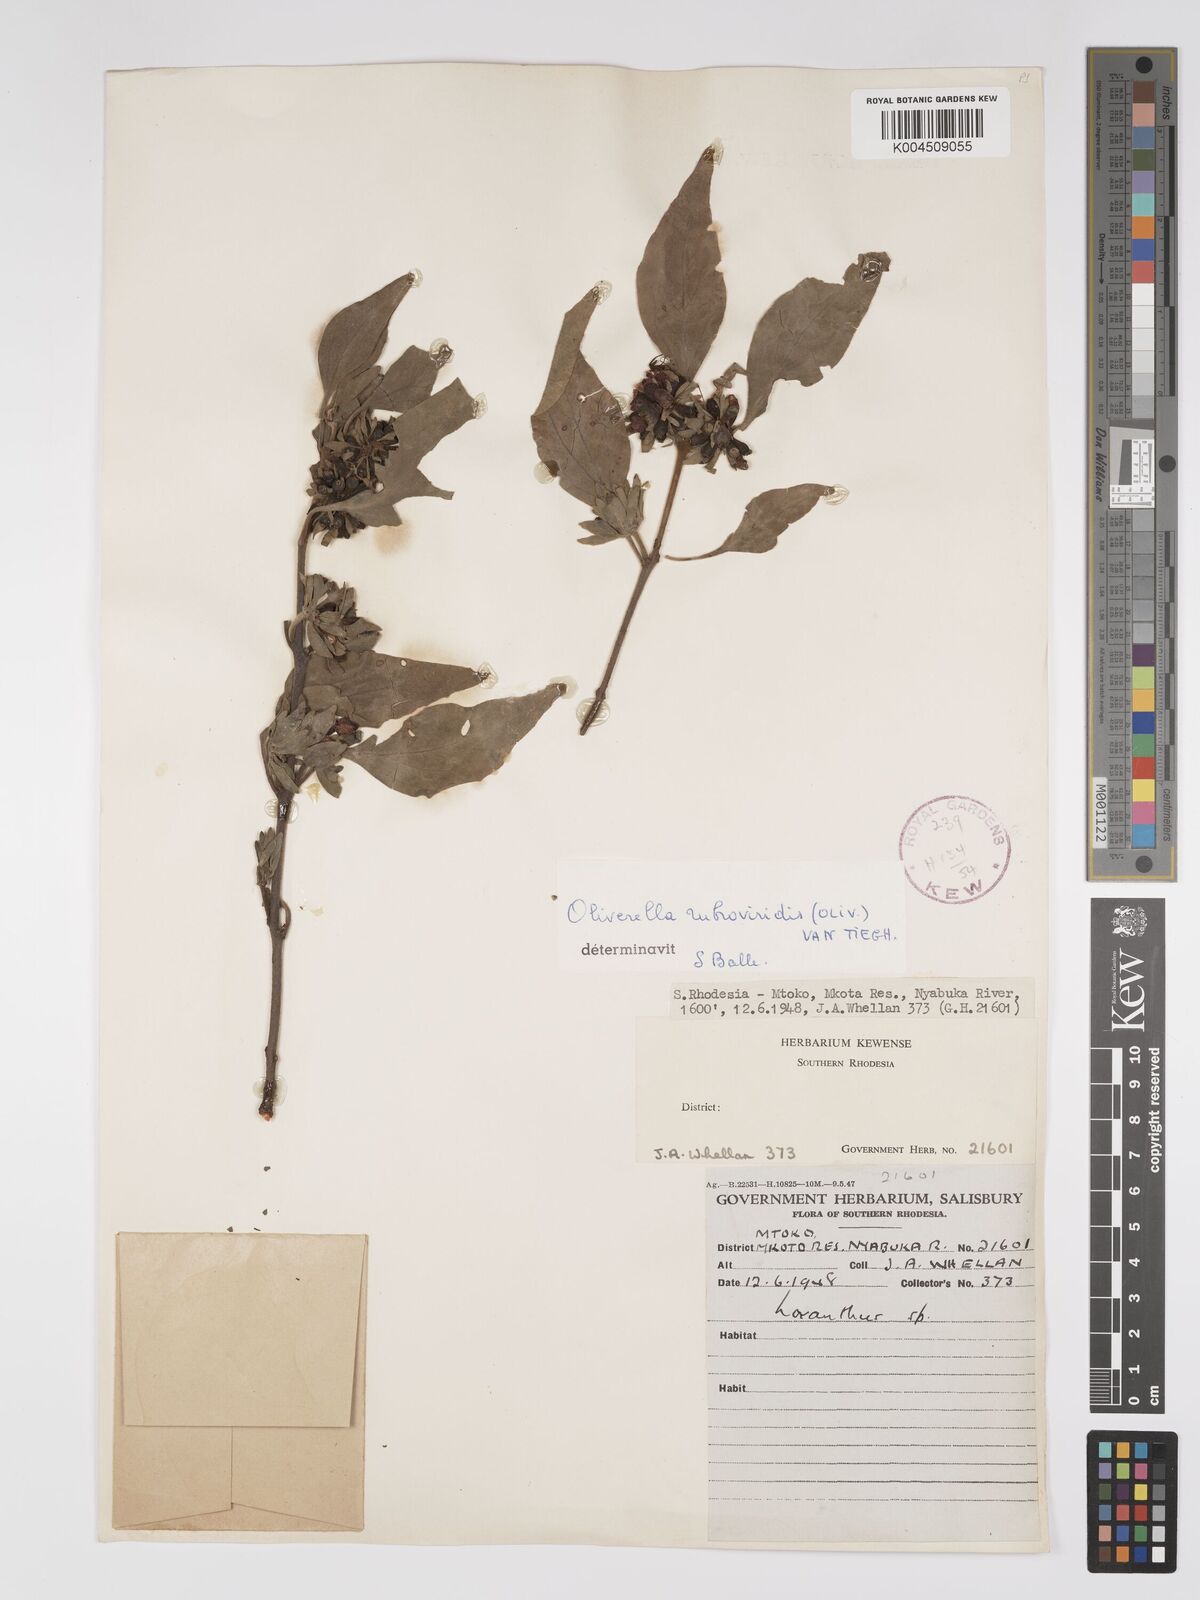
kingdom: Plantae
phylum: Tracheophyta
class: Magnoliopsida
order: Santalales
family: Loranthaceae
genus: Oliverella
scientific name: Oliverella rubroviridis
